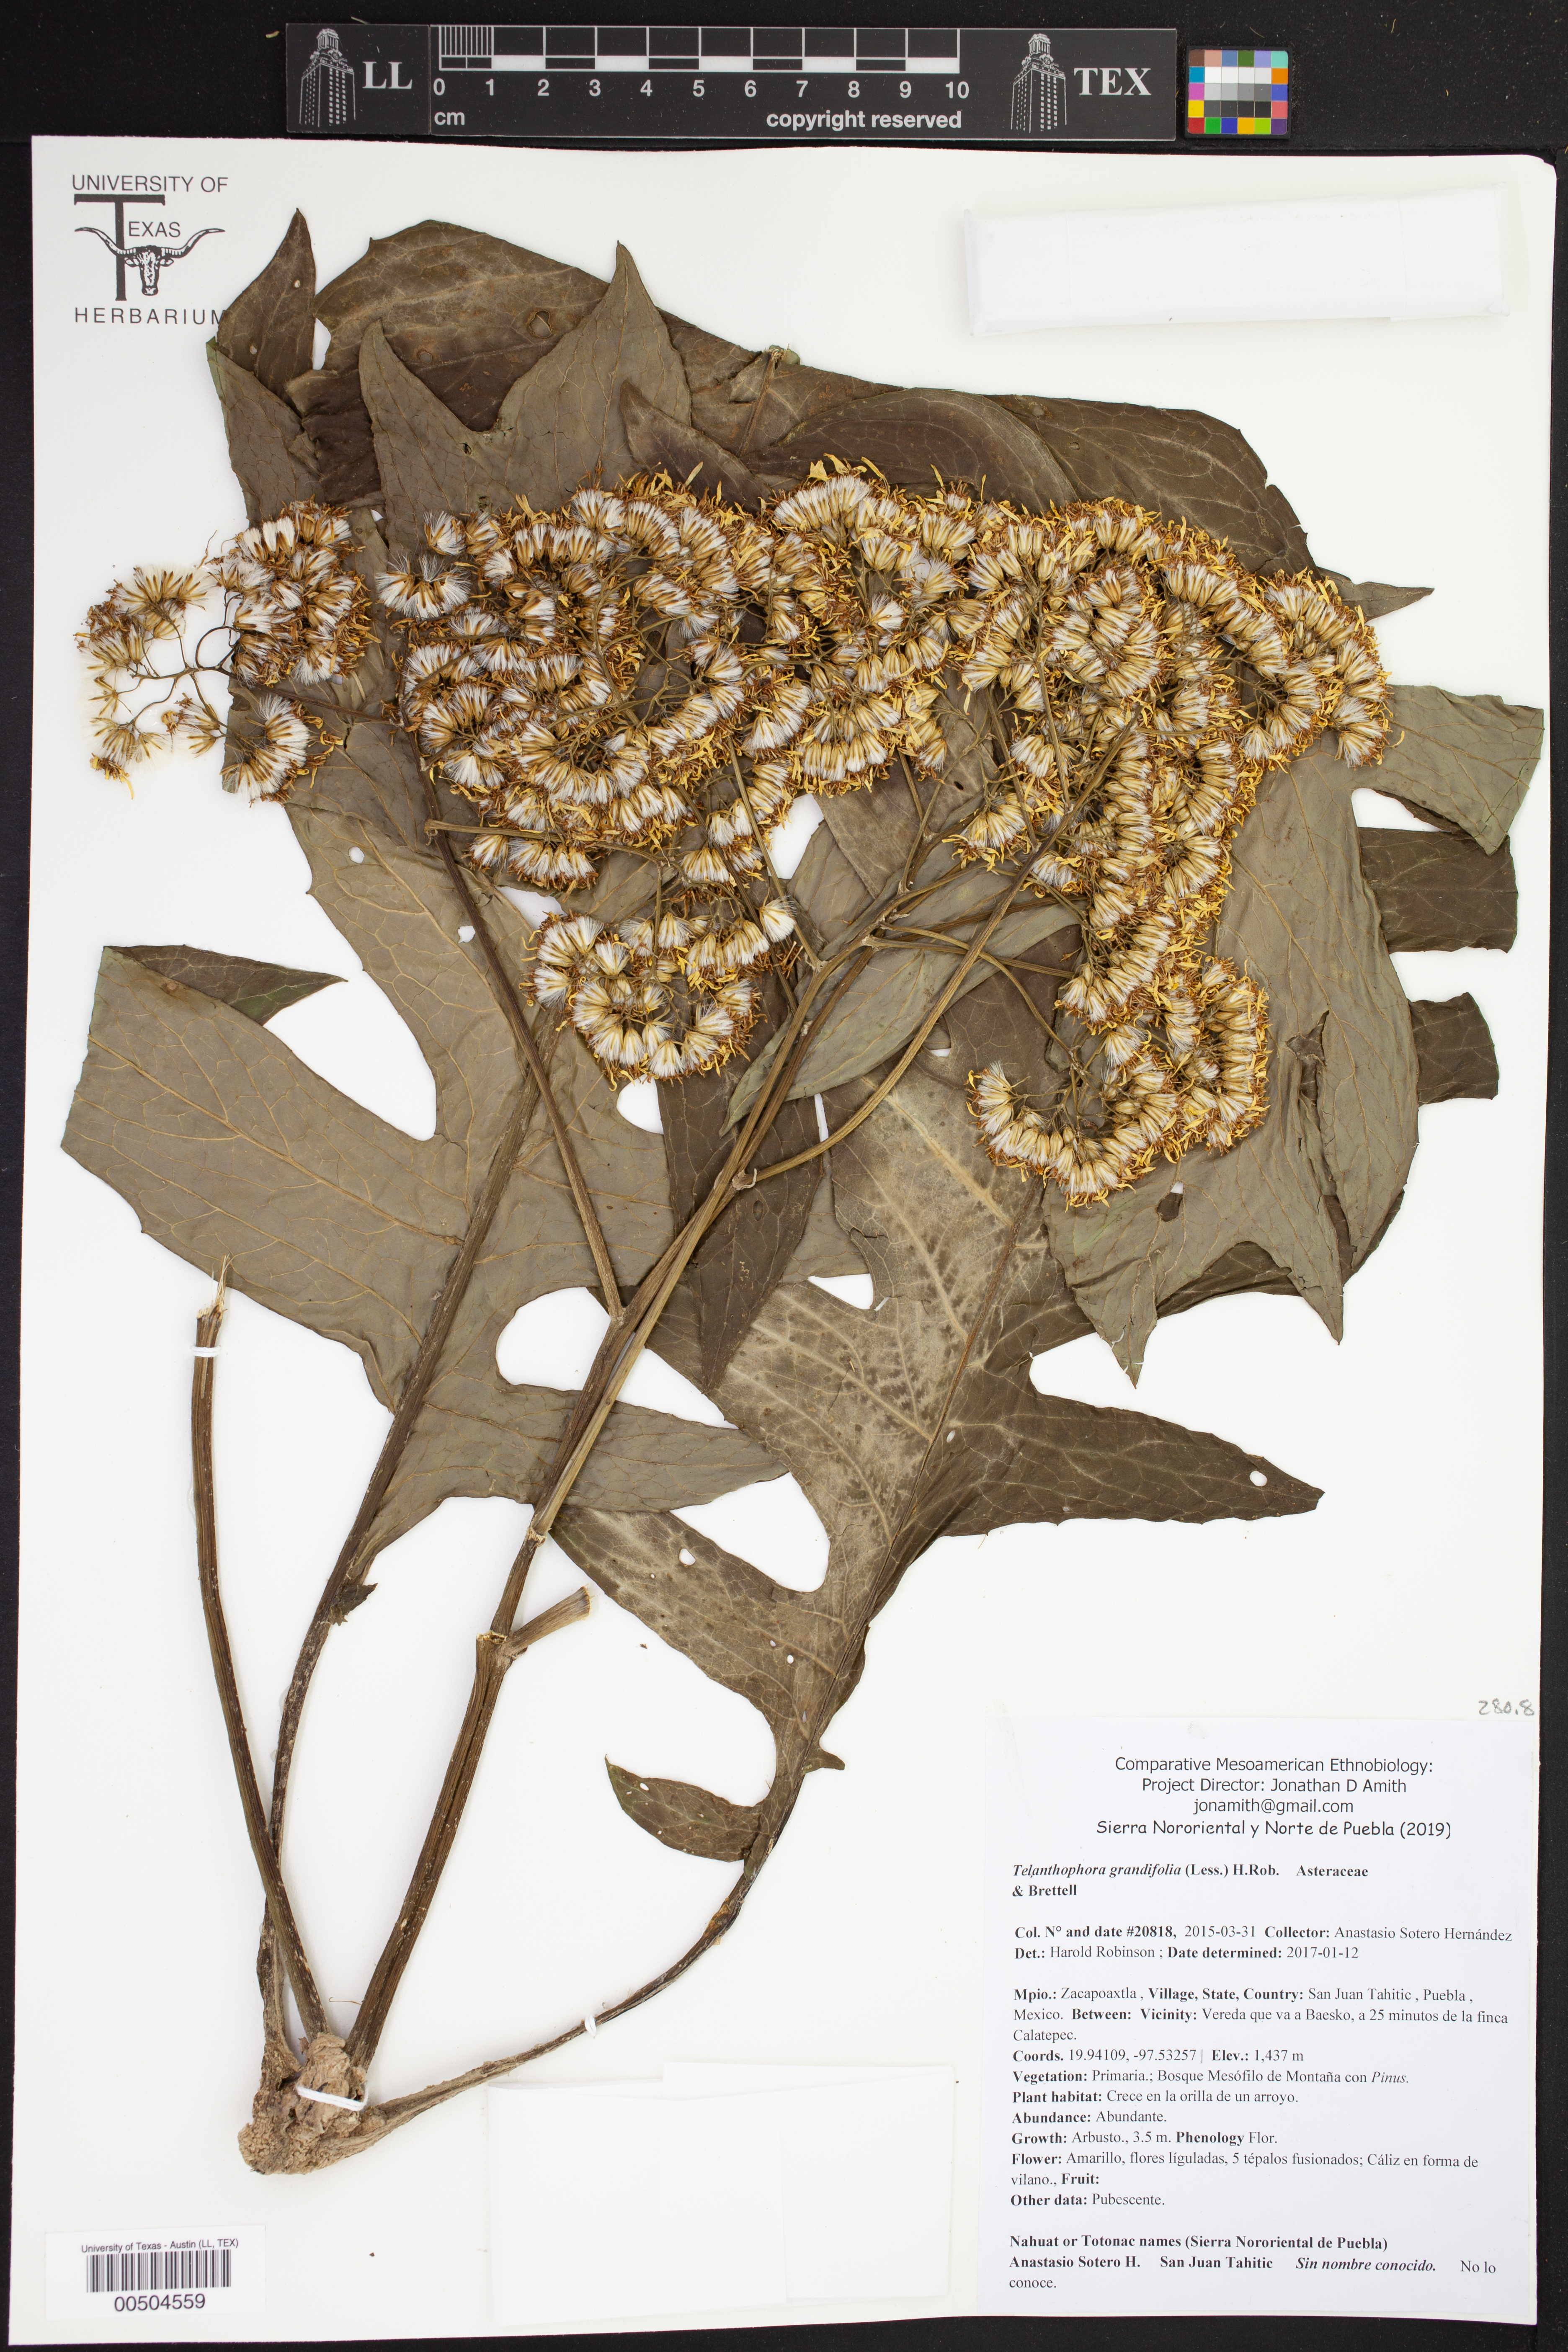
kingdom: Plantae
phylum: Tracheophyta
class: Magnoliopsida
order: Asterales
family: Asteraceae
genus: Telanthophora
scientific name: Telanthophora grandifolia
